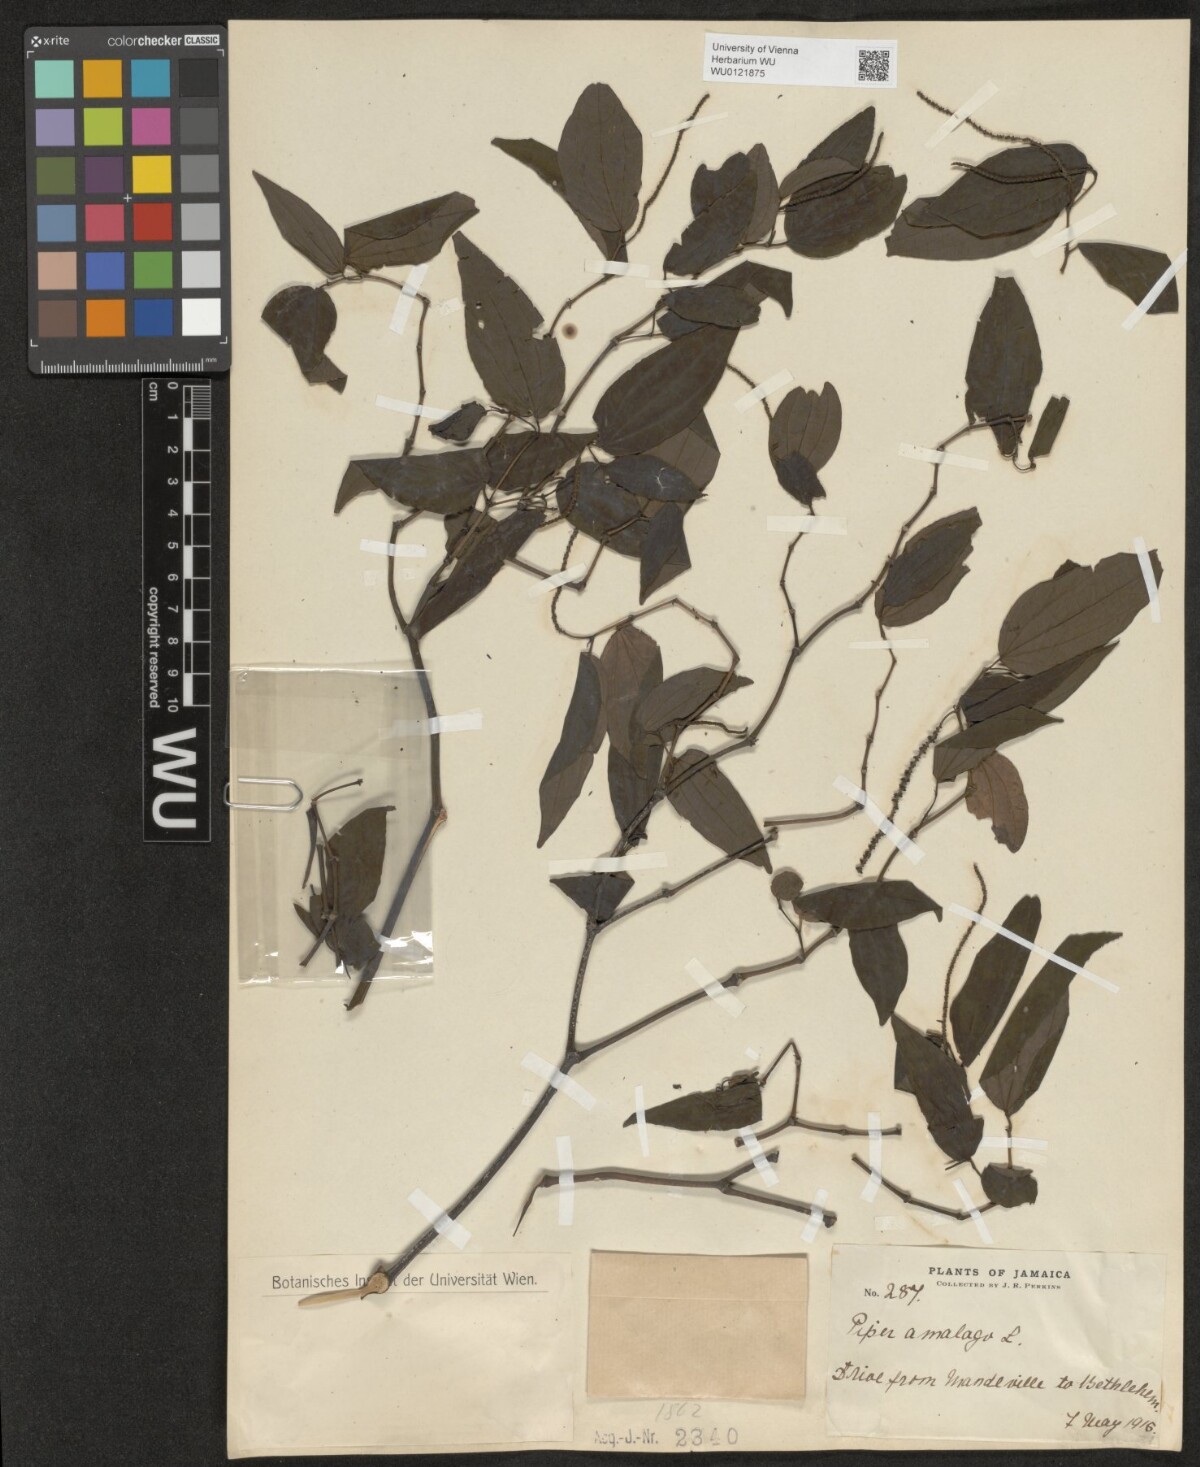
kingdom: Plantae
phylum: Tracheophyta
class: Magnoliopsida
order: Piperales
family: Piperaceae
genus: Piper
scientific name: Piper amalago
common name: Pepper-elder
